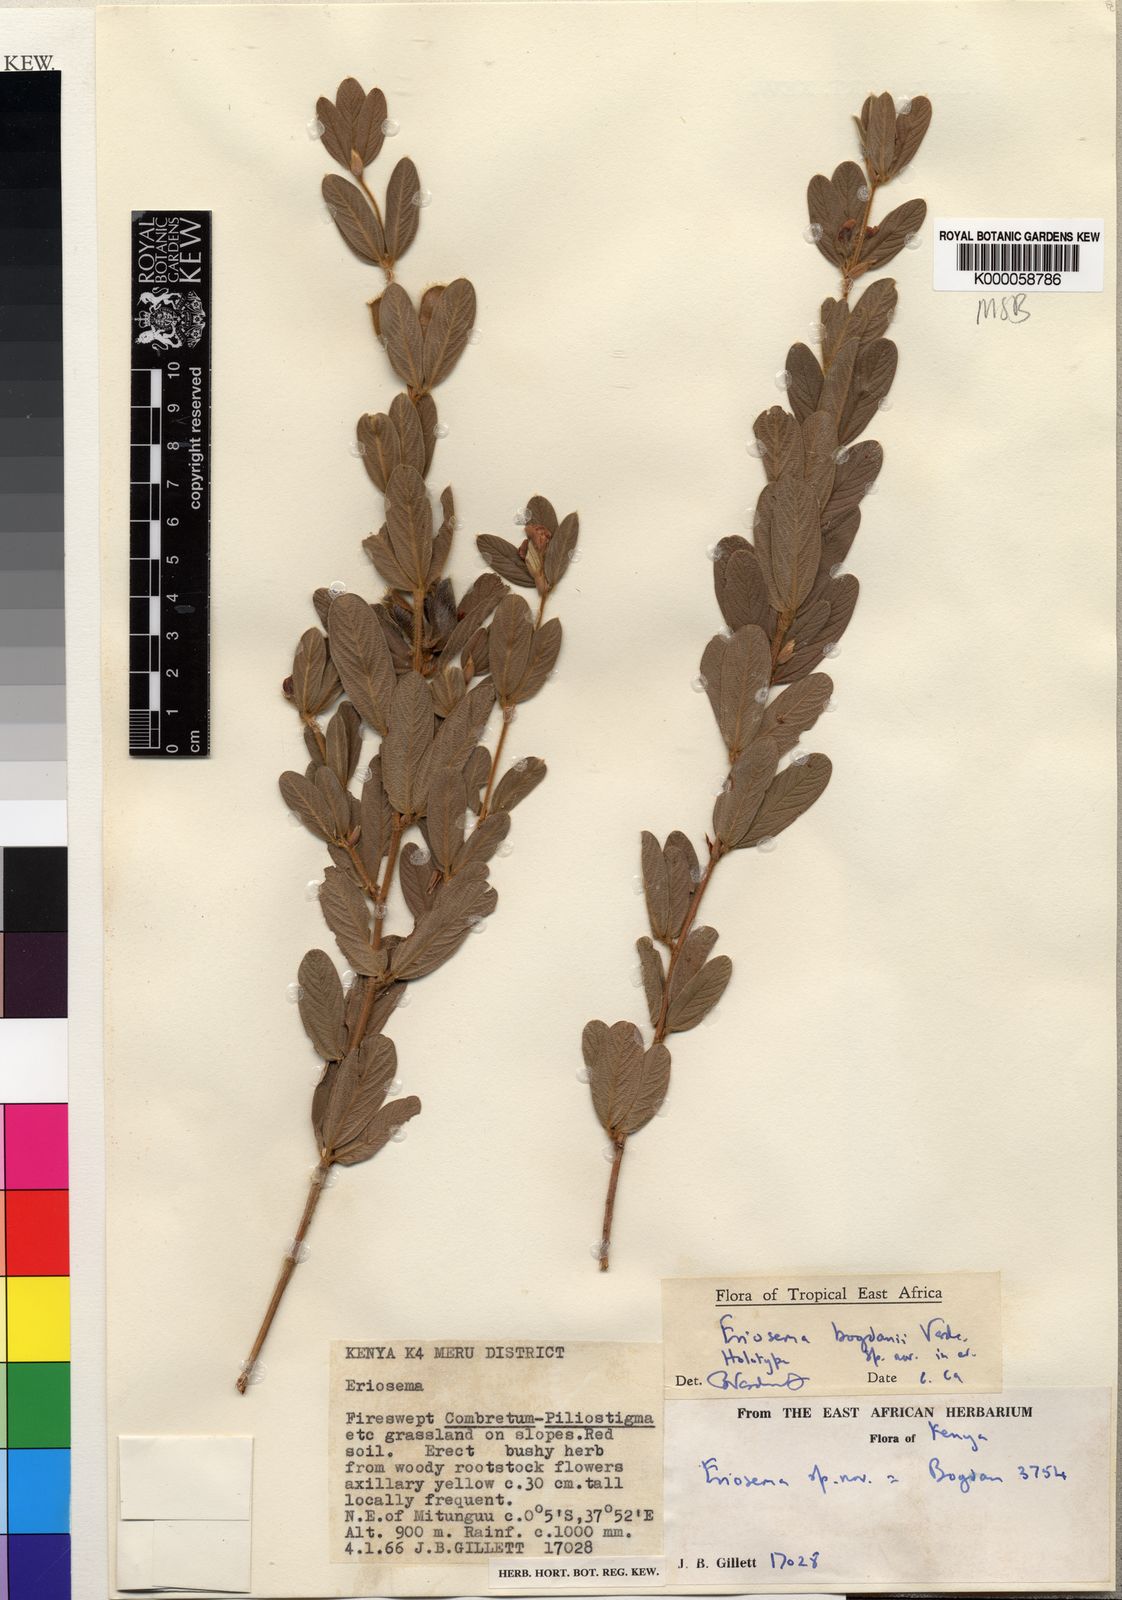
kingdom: Plantae
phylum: Tracheophyta
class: Magnoliopsida
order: Fabales
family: Fabaceae
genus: Eriosema
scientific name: Eriosema bogdanii
